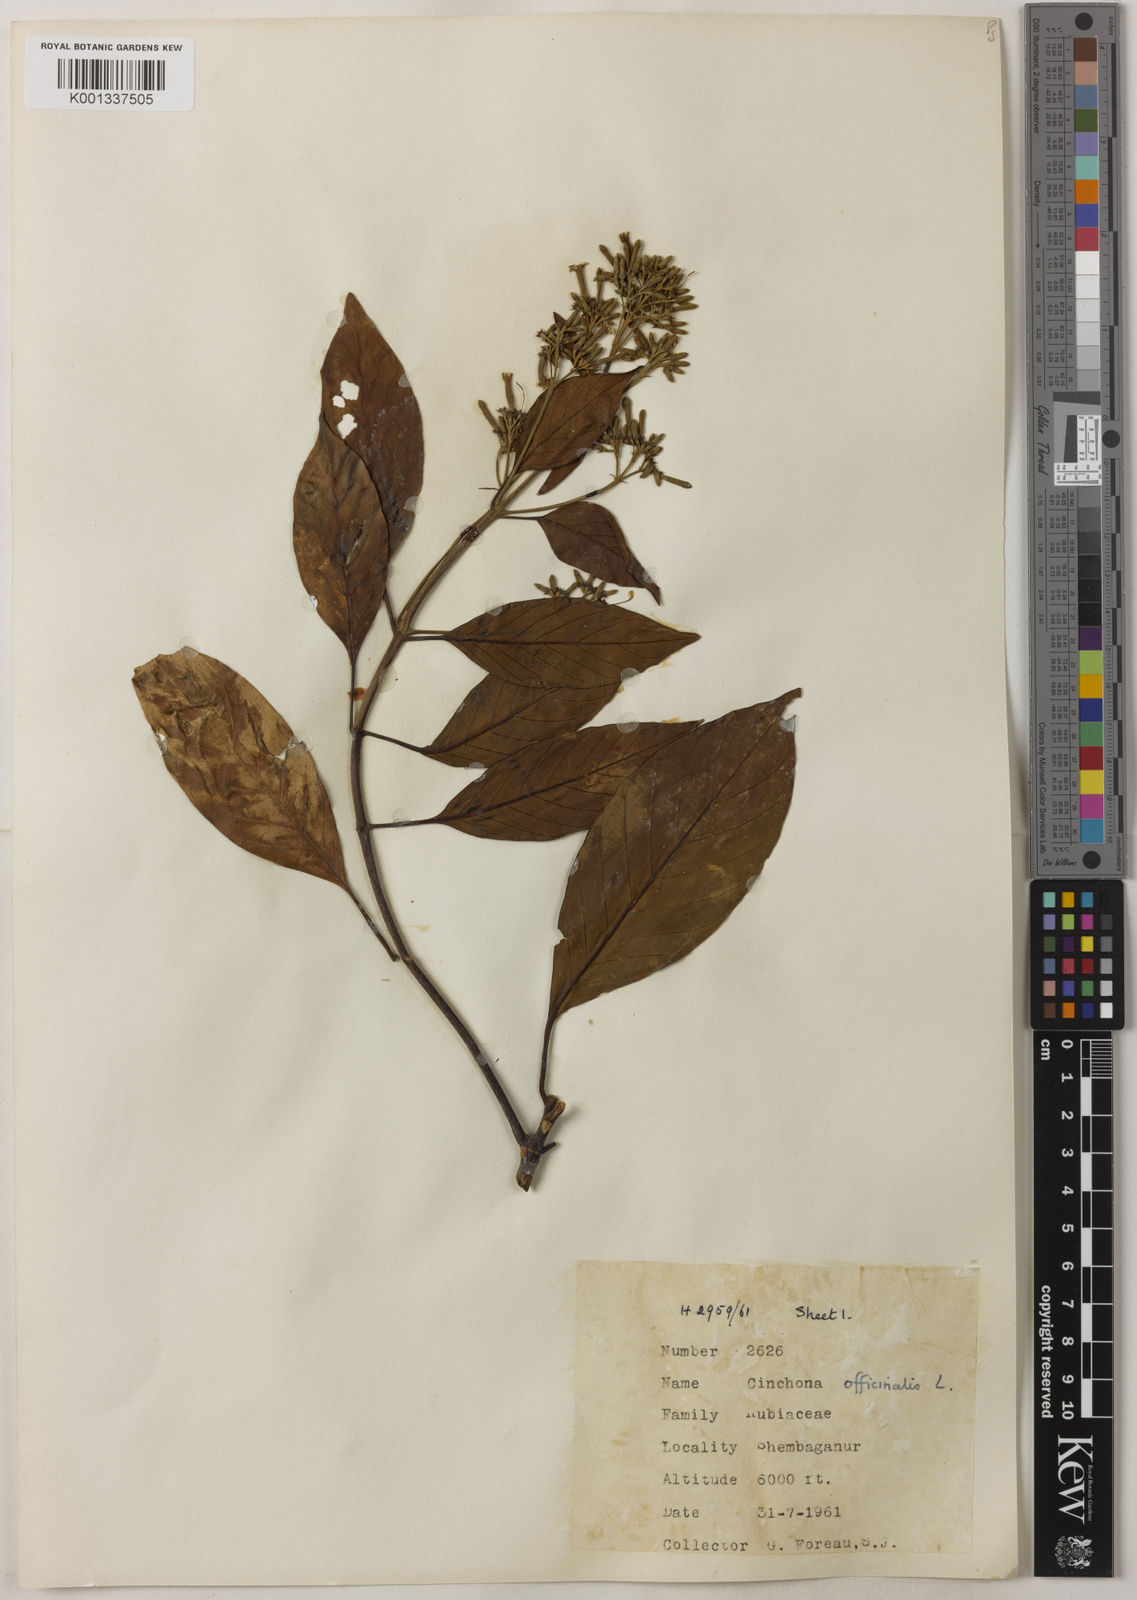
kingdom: Plantae
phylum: Tracheophyta
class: Magnoliopsida
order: Gentianales
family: Rubiaceae
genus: Cinchona
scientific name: Cinchona officinalis
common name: Lojabark
